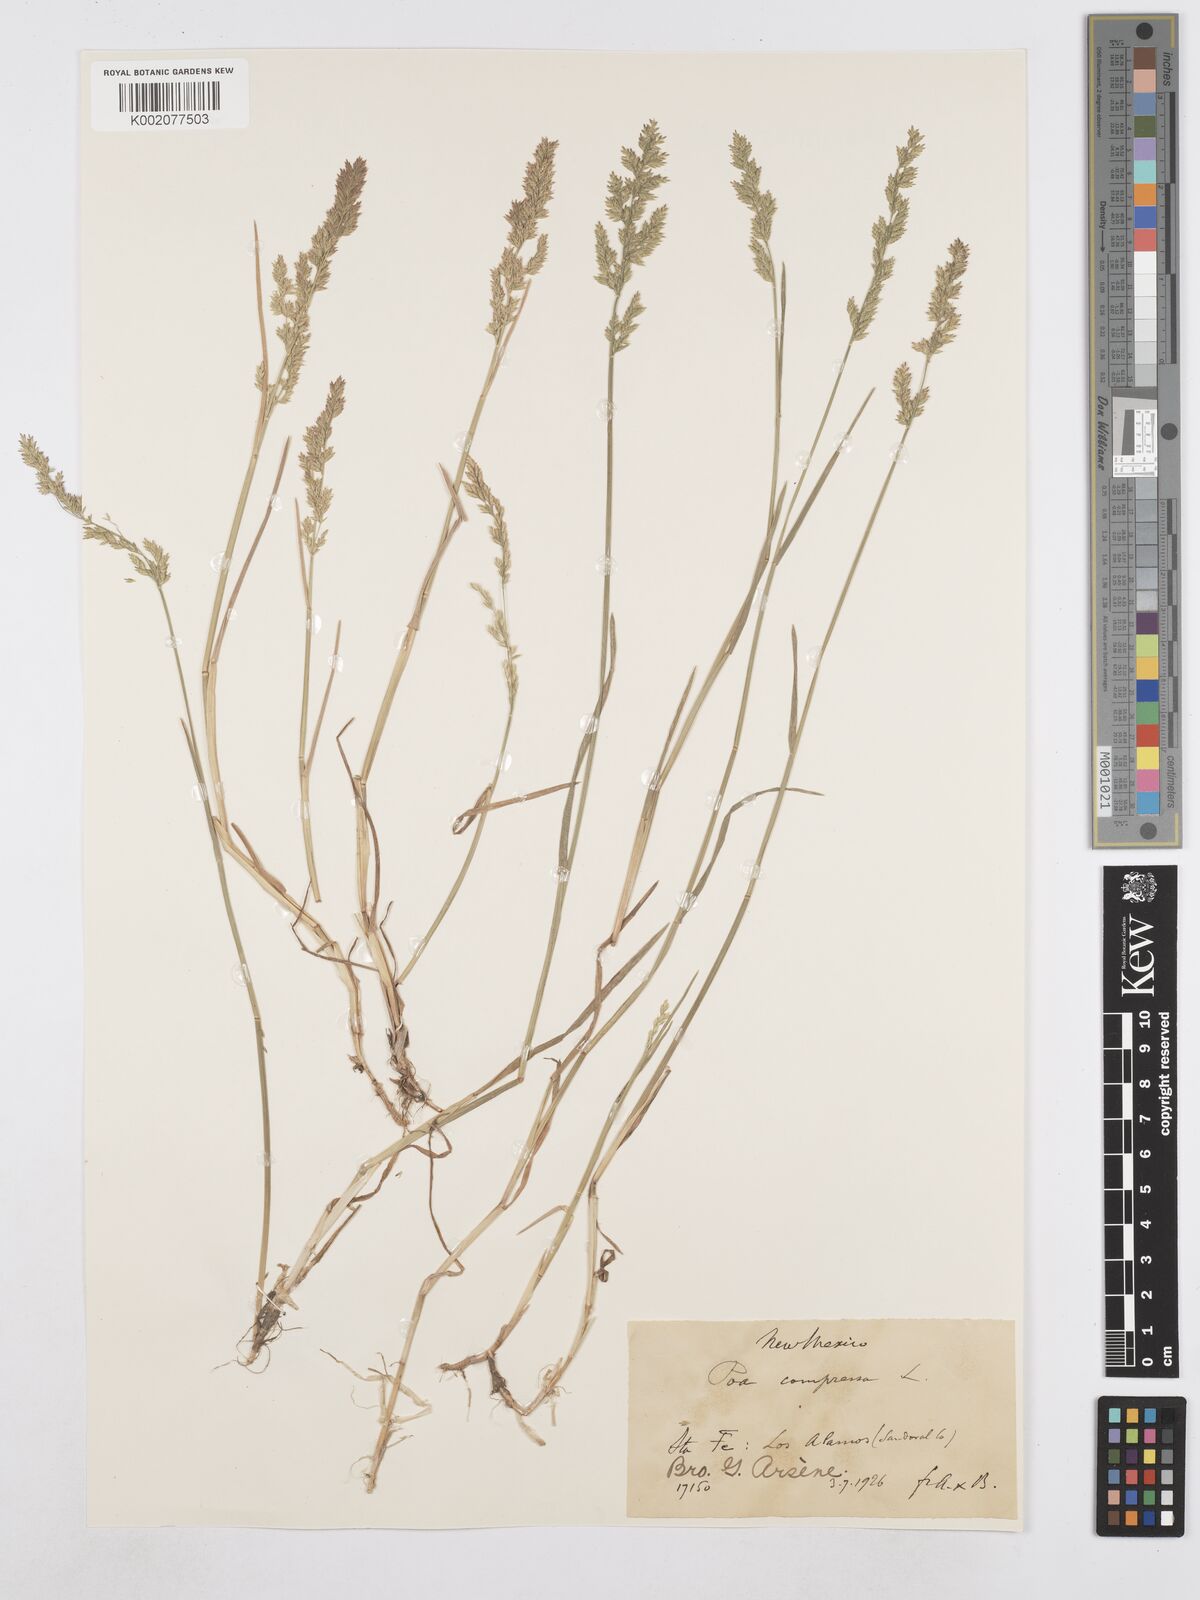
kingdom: Plantae
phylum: Tracheophyta
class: Liliopsida
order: Poales
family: Poaceae
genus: Poa
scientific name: Poa compressa
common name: Canada bluegrass
